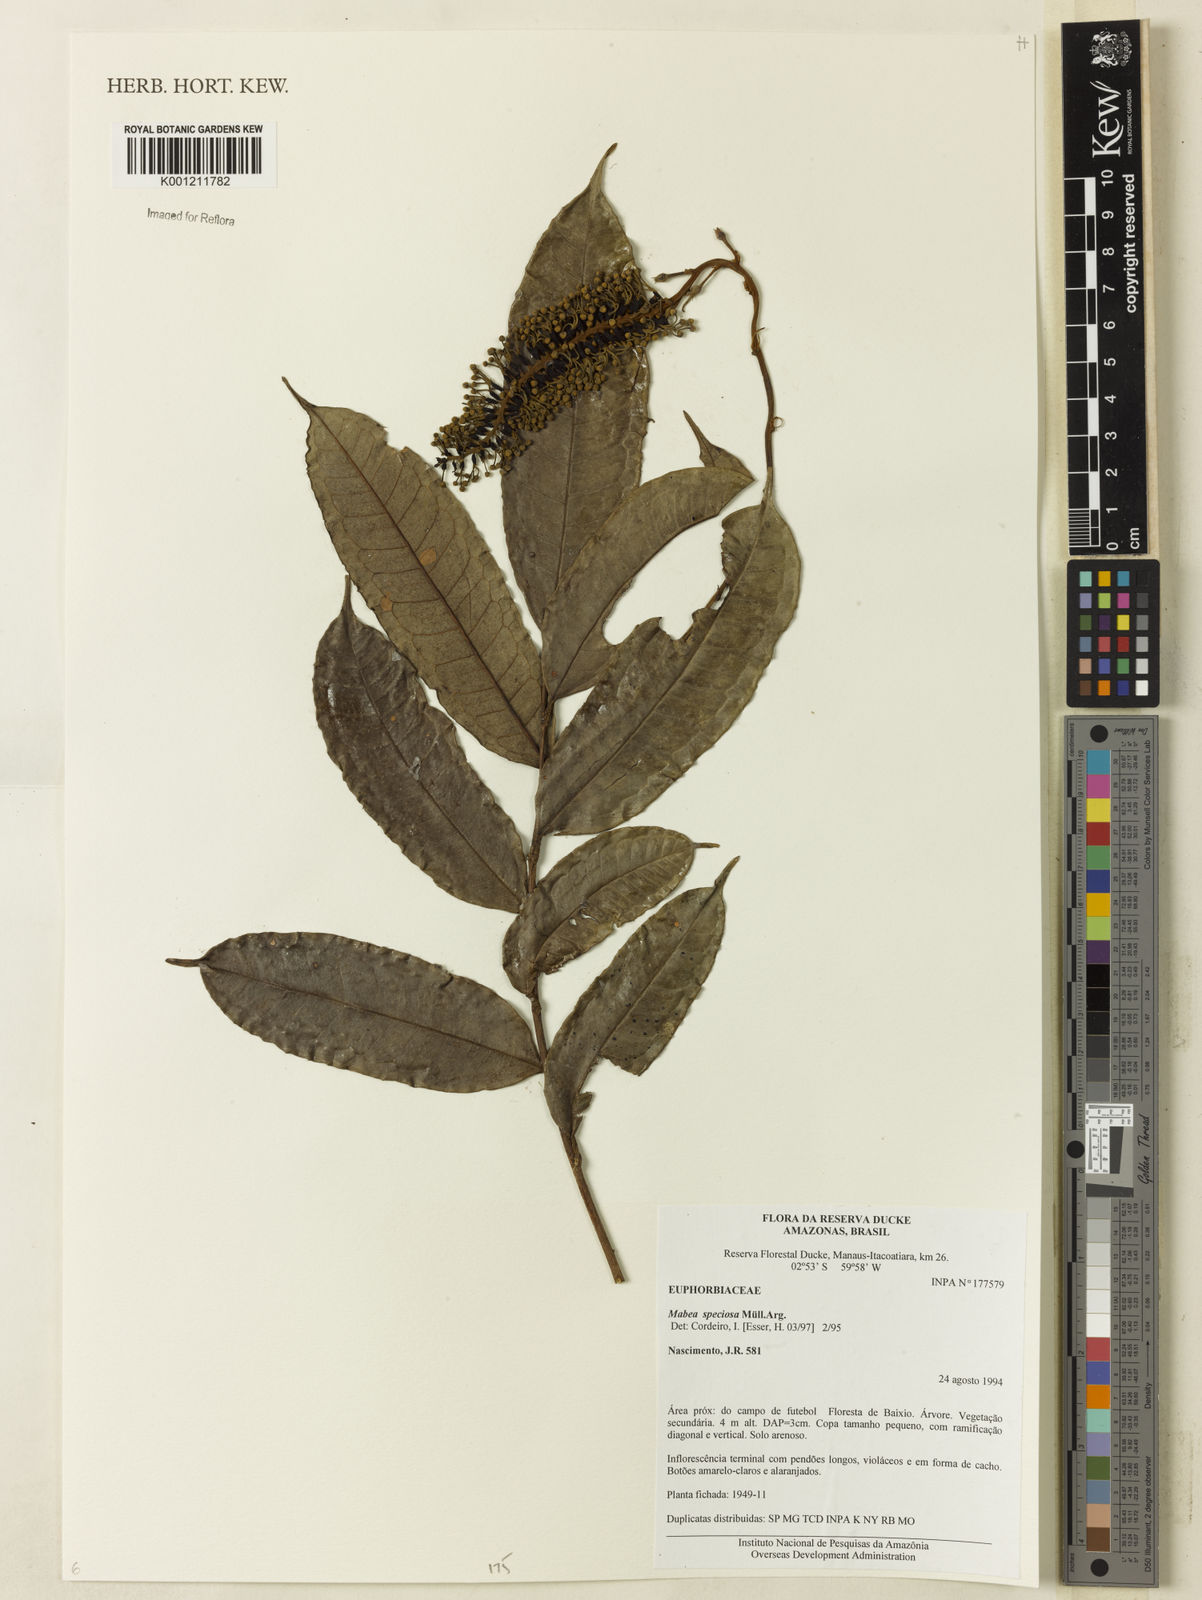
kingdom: Plantae
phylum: Tracheophyta
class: Magnoliopsida
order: Malpighiales
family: Euphorbiaceae
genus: Mabea
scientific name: Mabea
